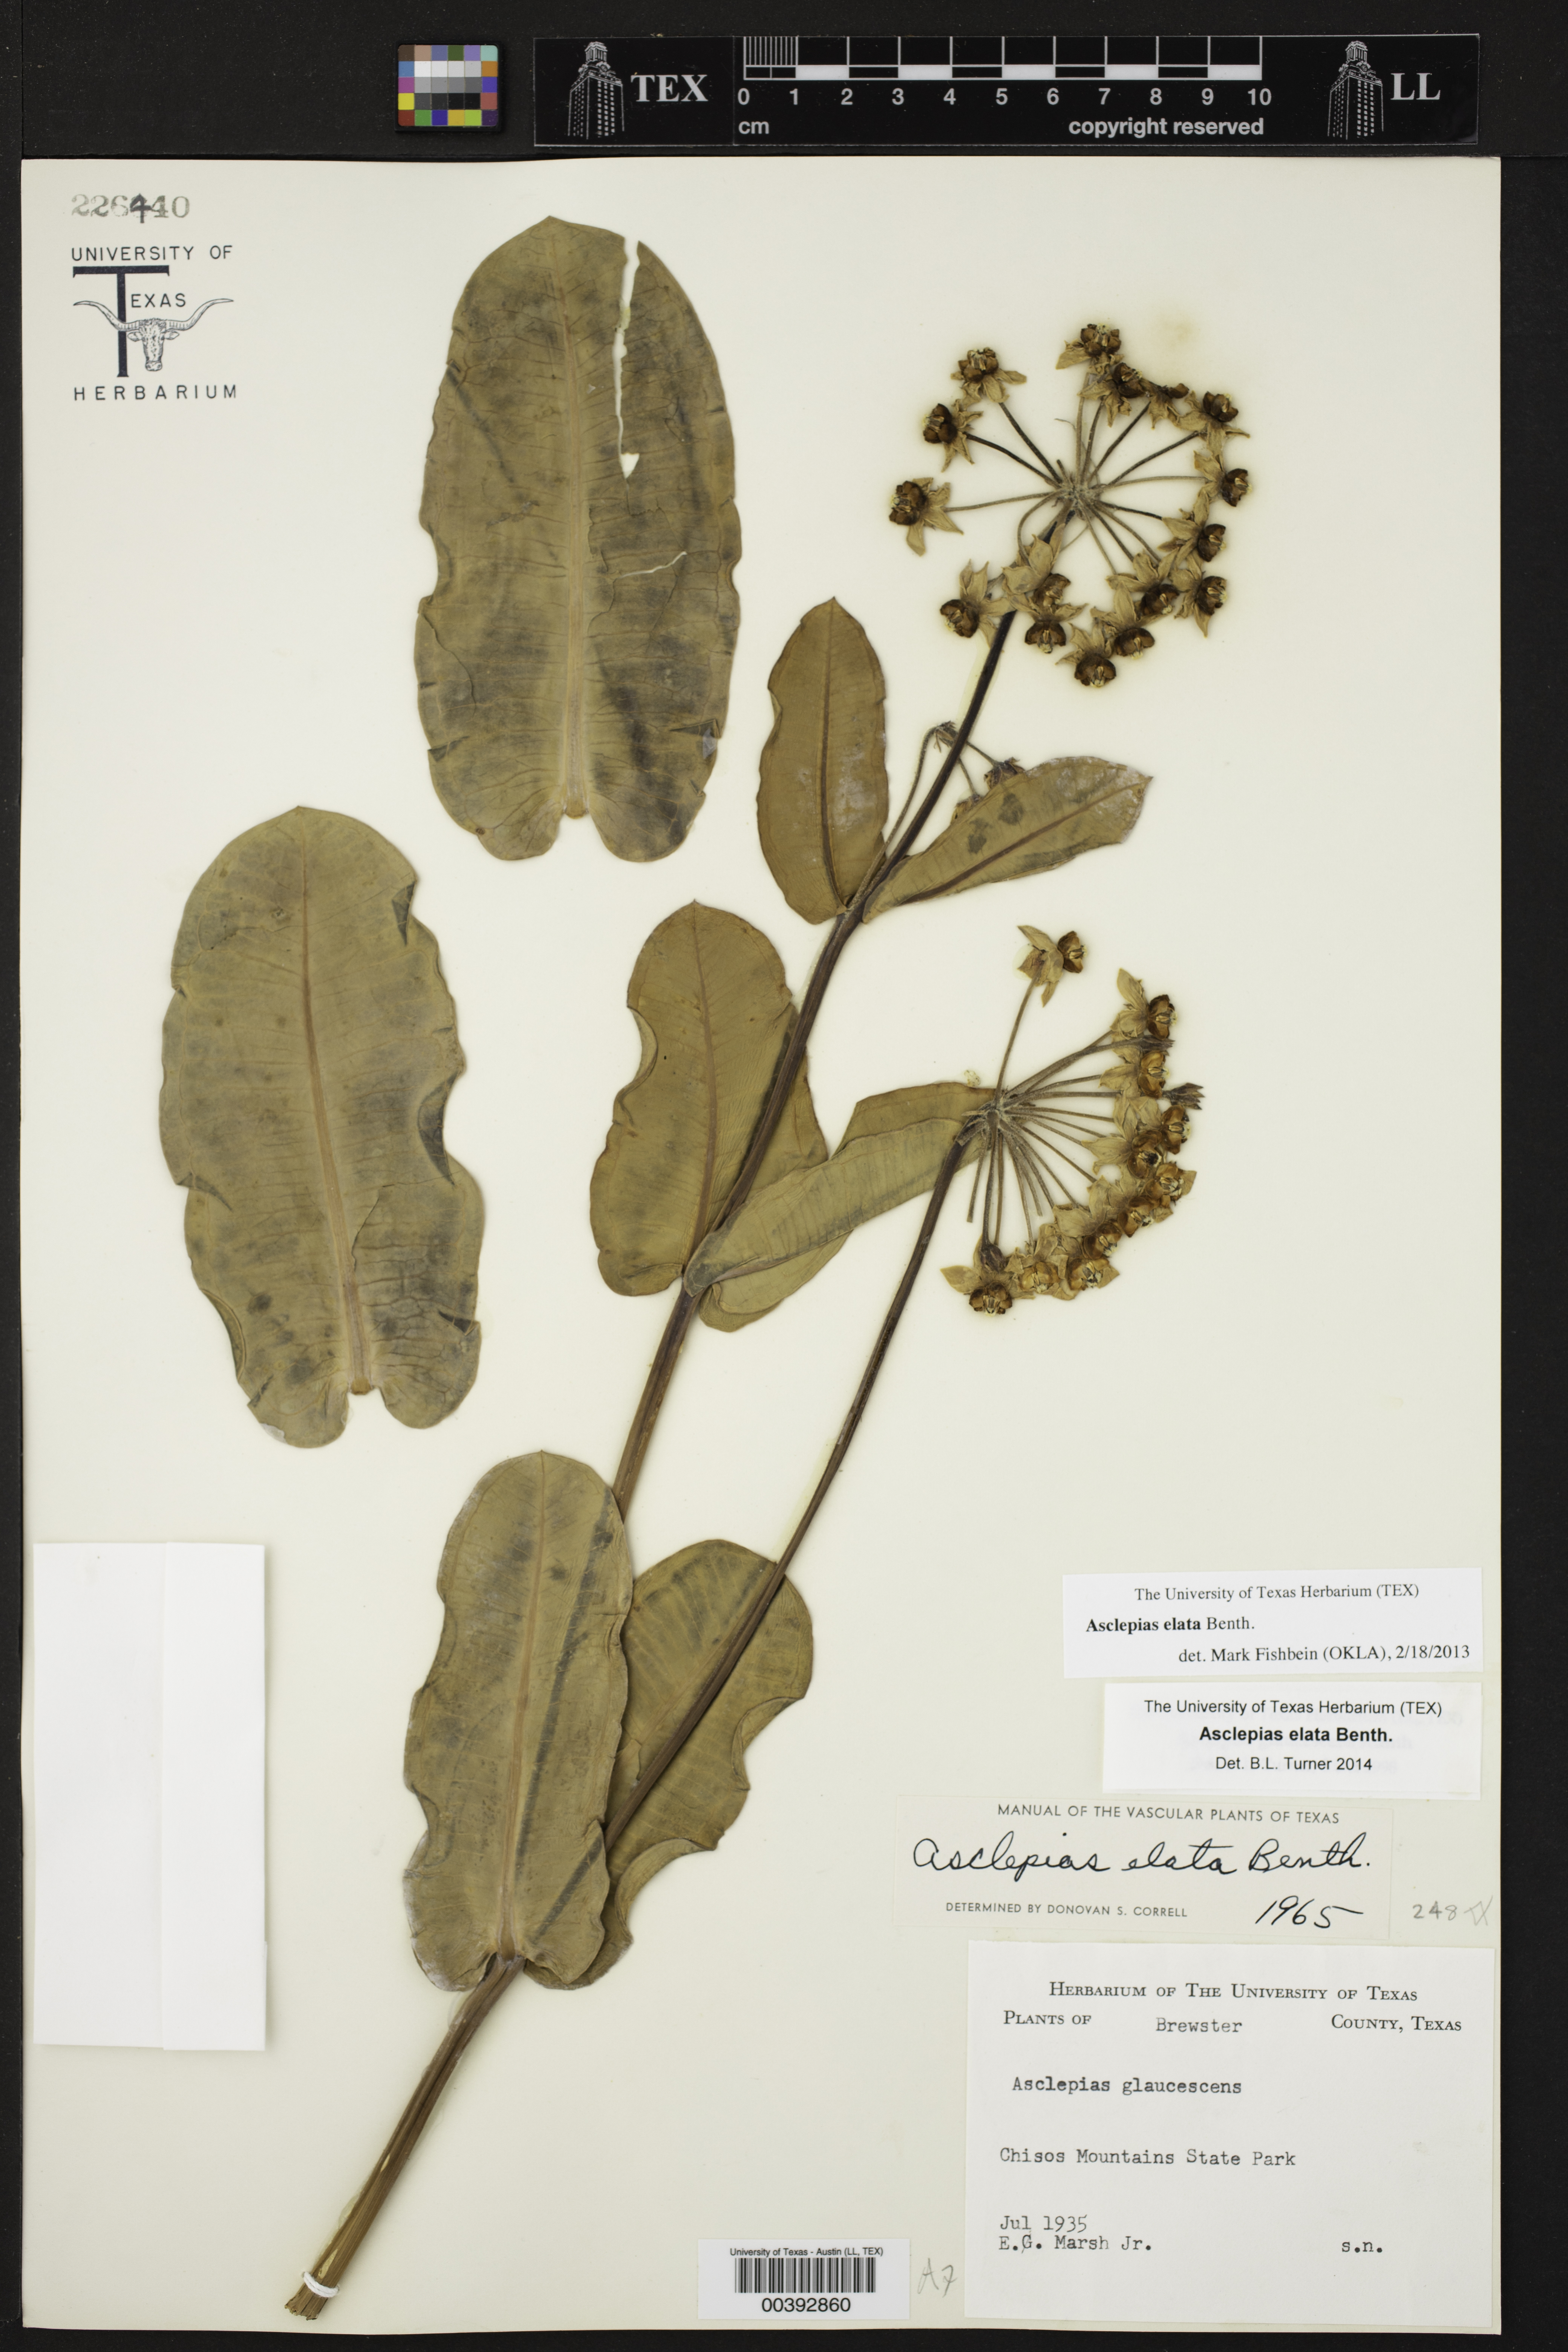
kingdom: Plantae
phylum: Tracheophyta
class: Magnoliopsida
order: Gentianales
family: Apocynaceae
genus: Asclepias
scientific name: Asclepias elata
